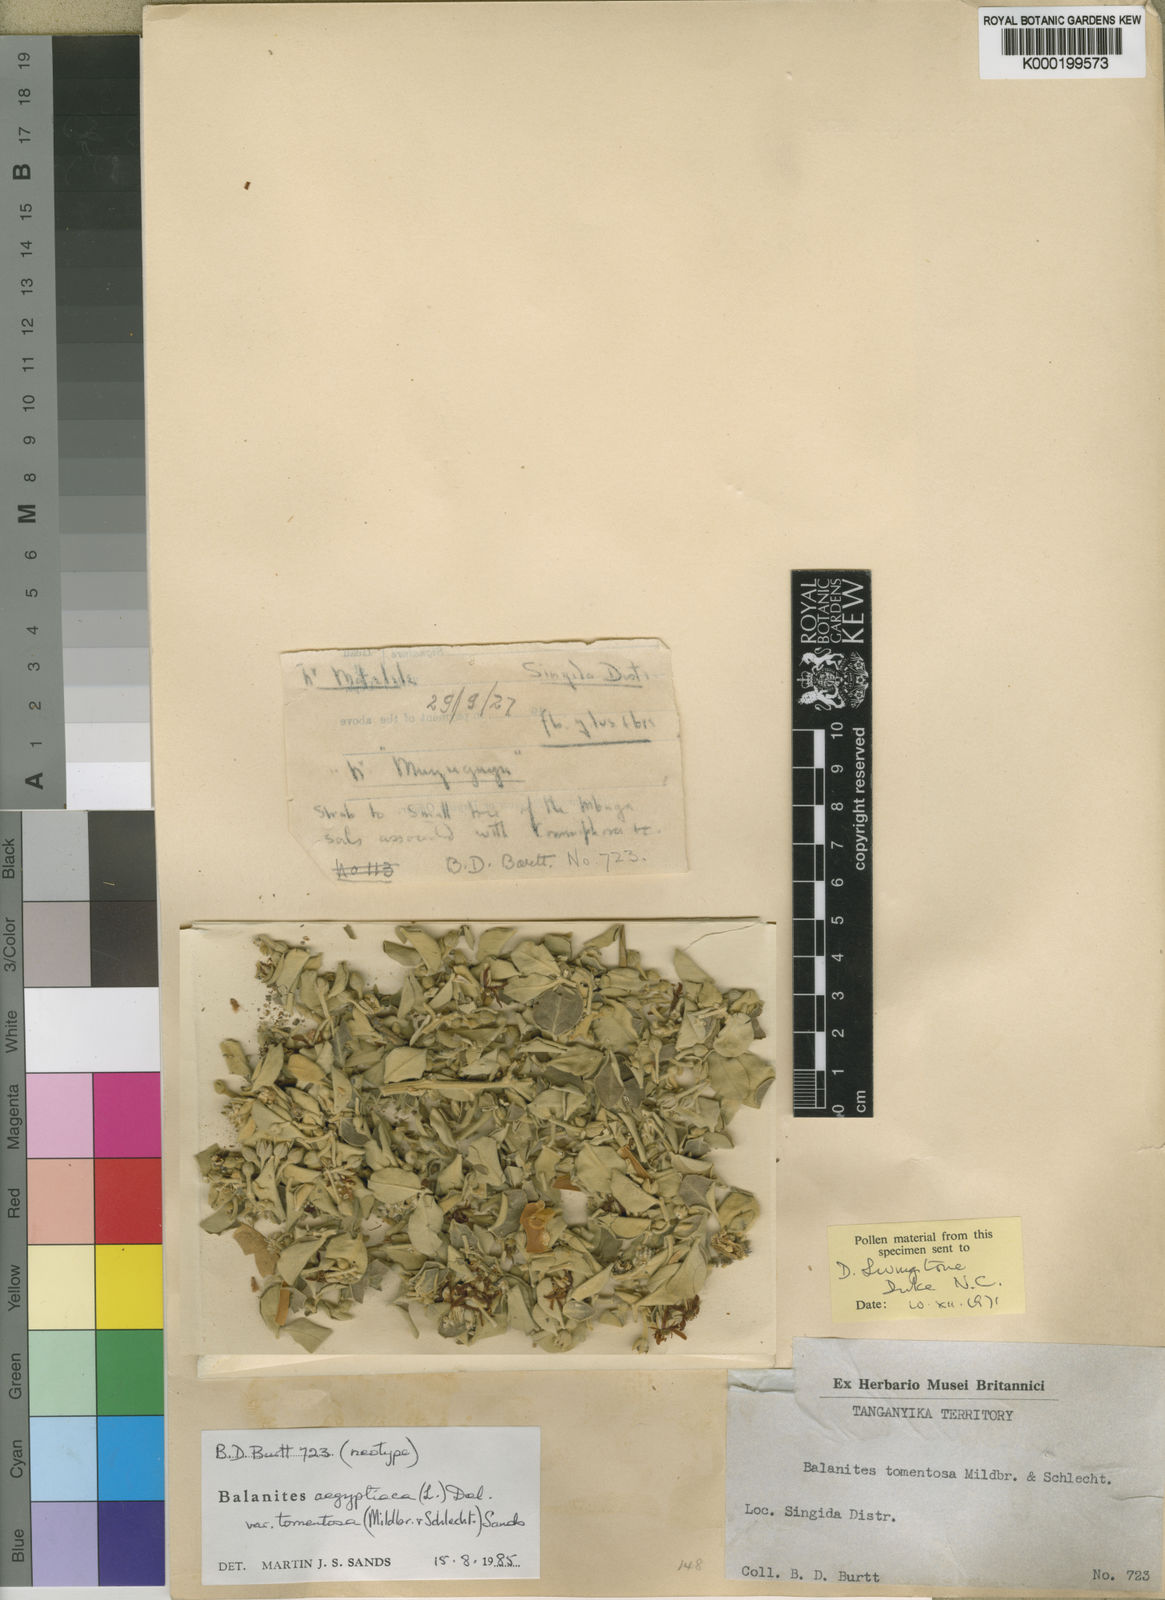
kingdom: Plantae
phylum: Tracheophyta
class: Magnoliopsida
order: Zygophyllales
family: Zygophyllaceae
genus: Balanites
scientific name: Balanites aegyptiaca
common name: Balanites
